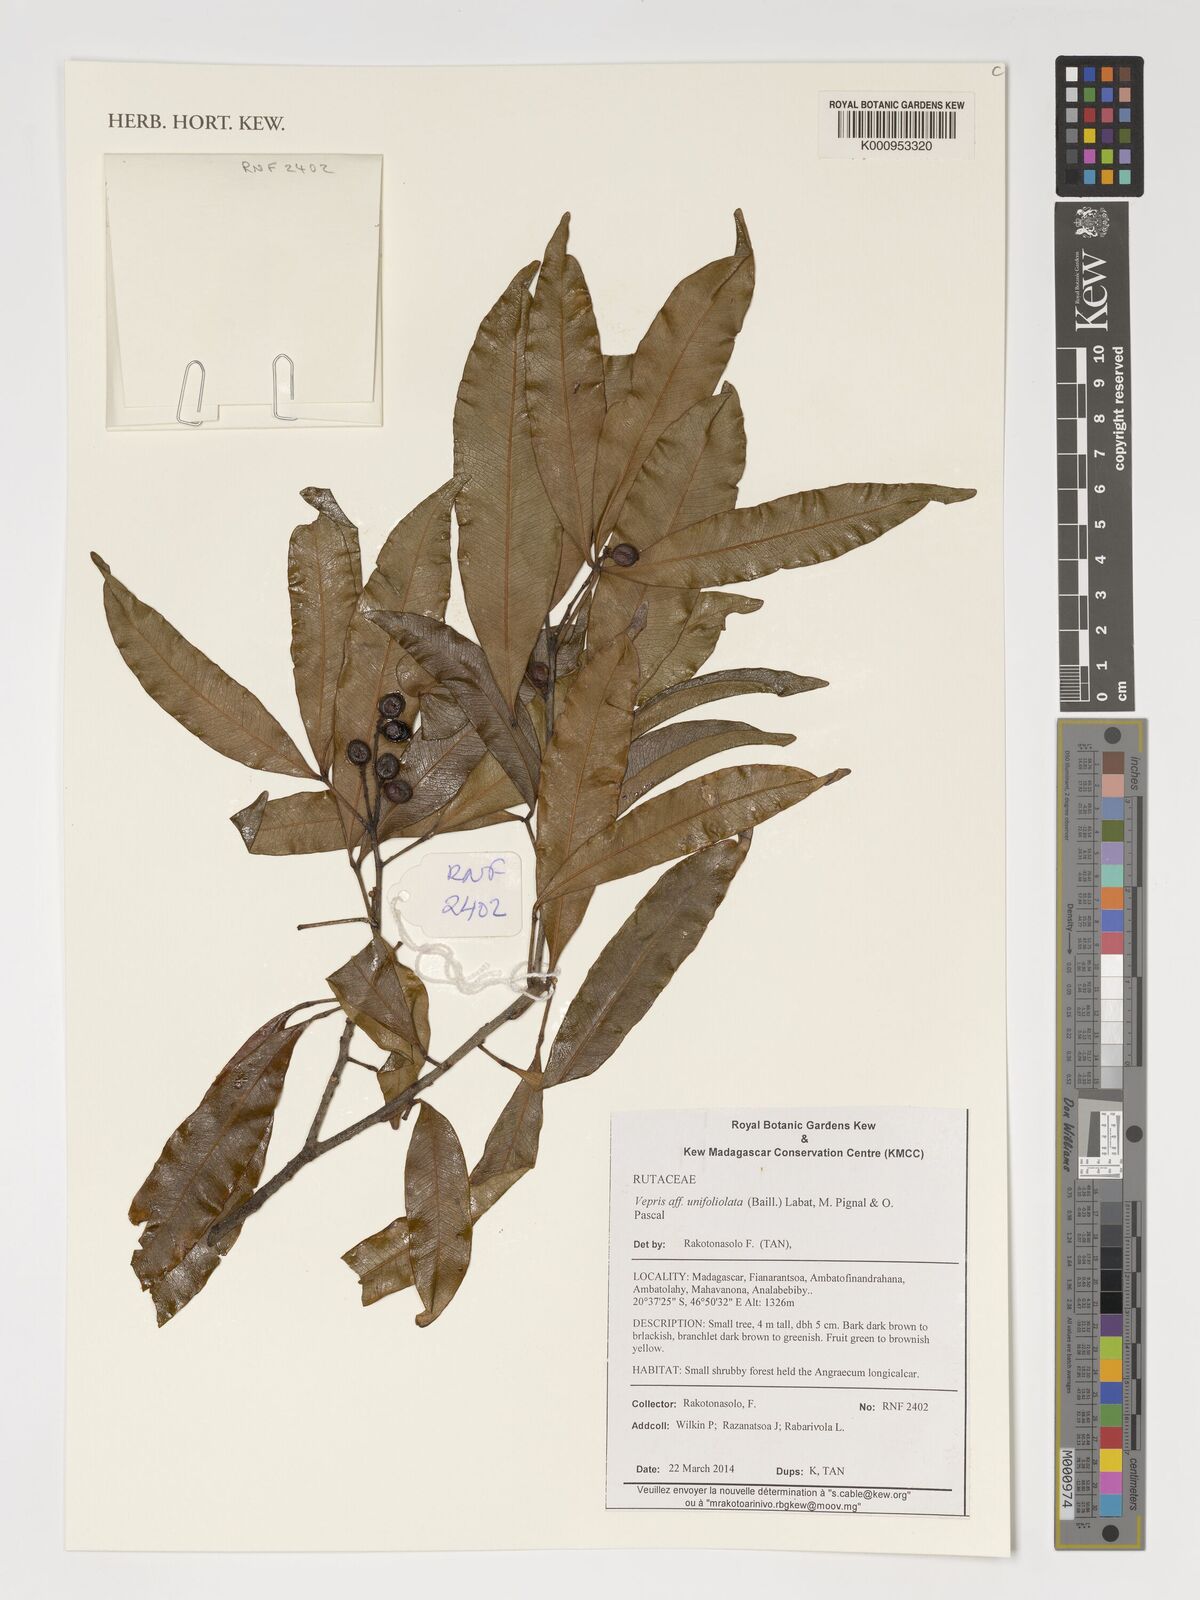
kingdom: Plantae
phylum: Tracheophyta
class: Magnoliopsida
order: Sapindales
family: Rutaceae
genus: Vepris
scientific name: Vepris unifoliolata
